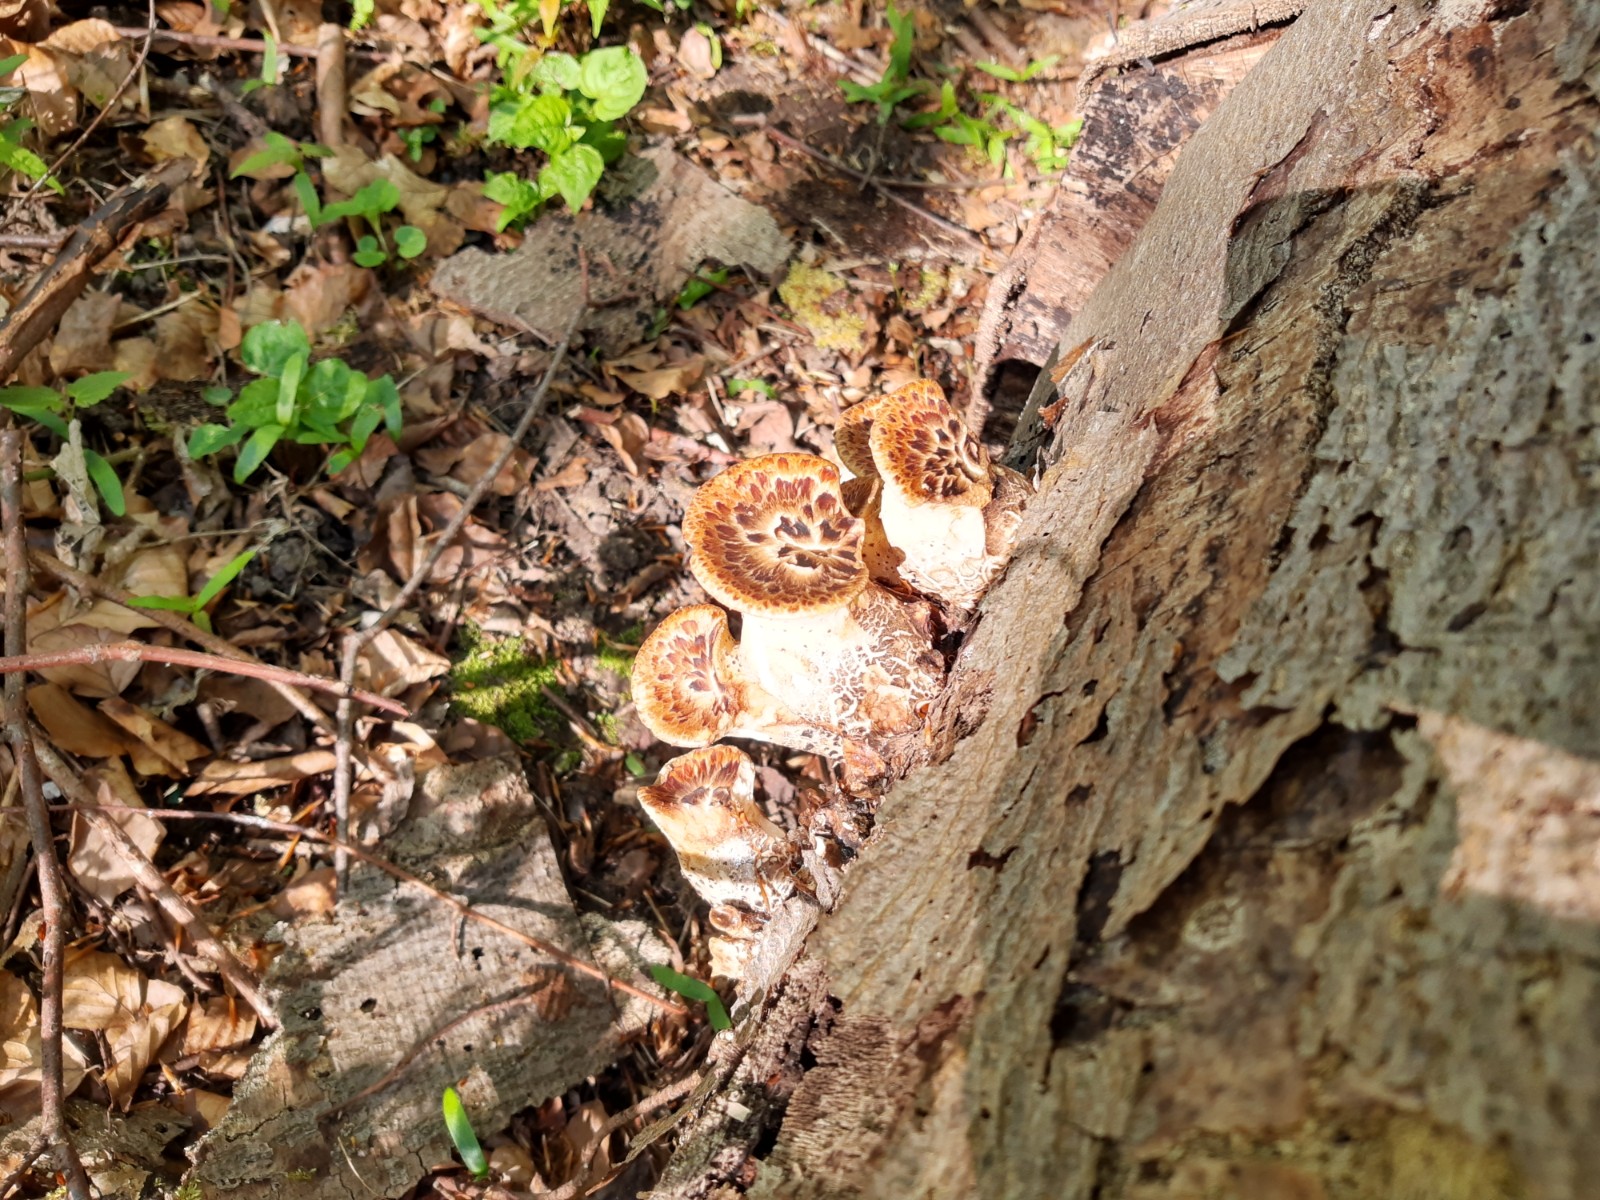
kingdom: Fungi
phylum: Basidiomycota
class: Agaricomycetes
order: Polyporales
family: Polyporaceae
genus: Cerioporus
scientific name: Cerioporus squamosus
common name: skællet stilkporesvamp
